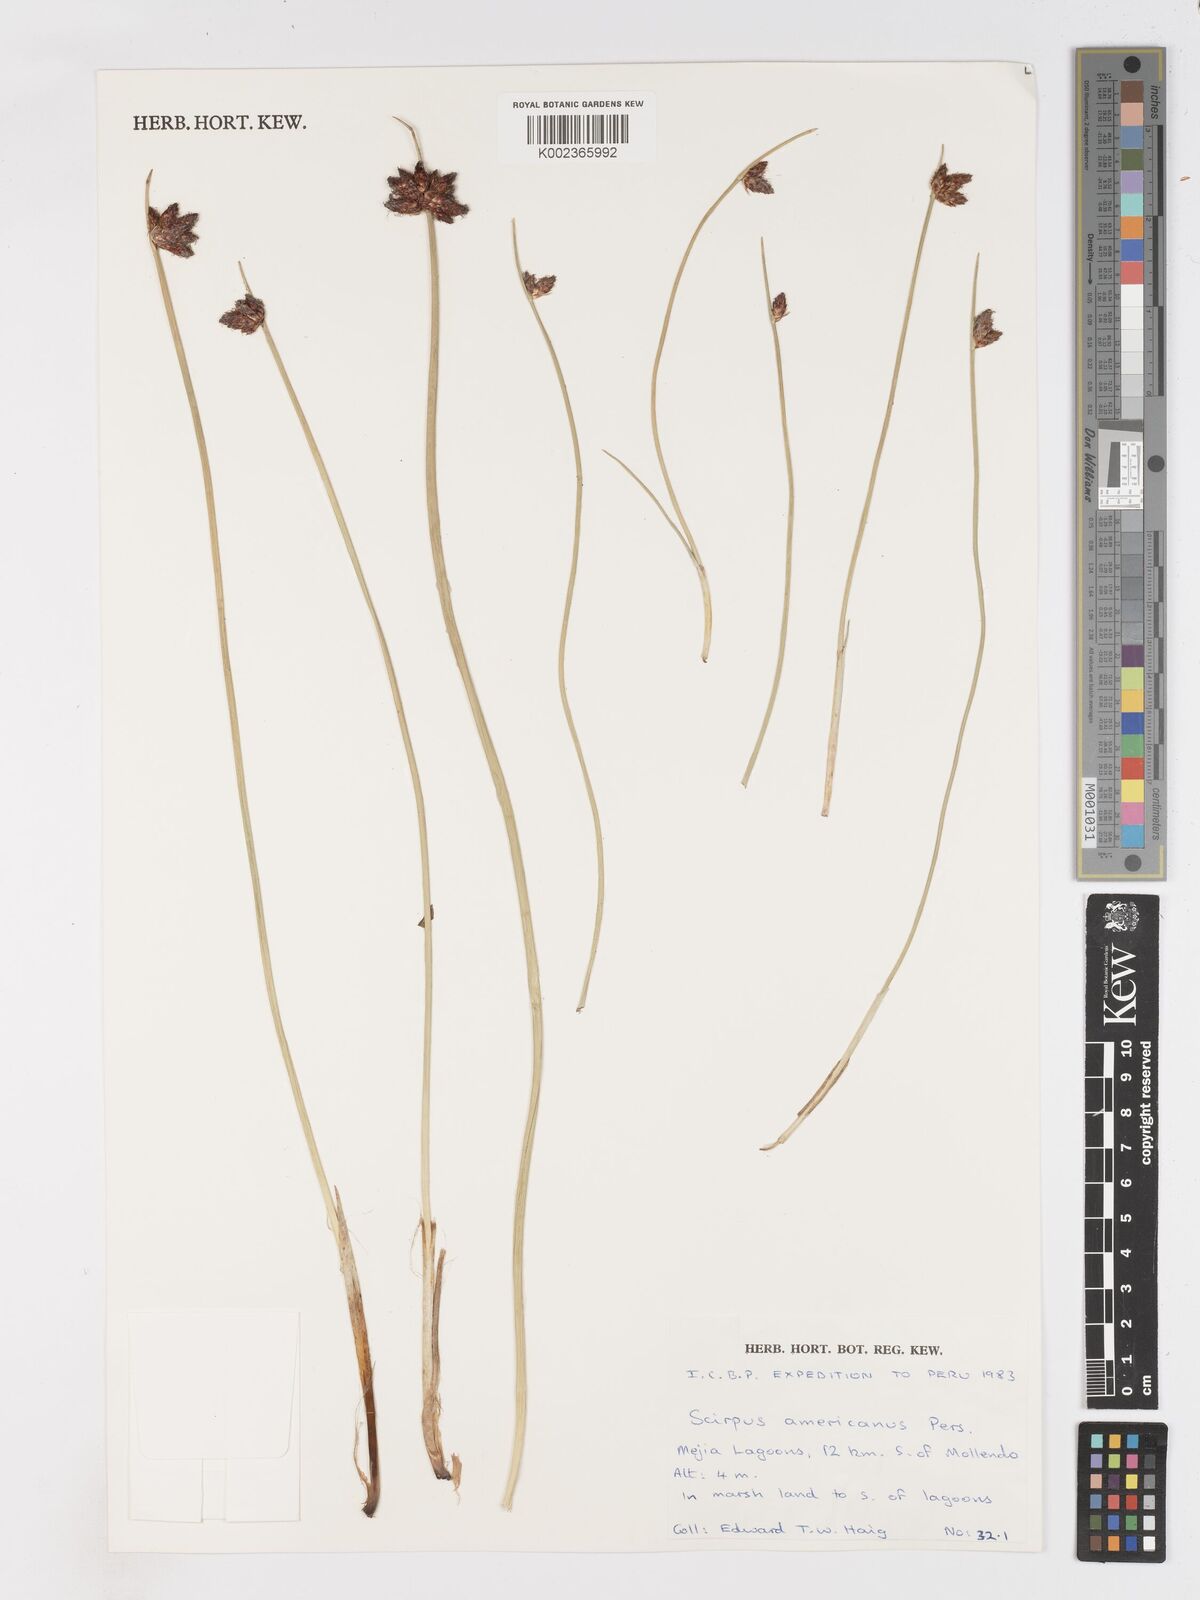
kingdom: Plantae
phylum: Tracheophyta
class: Liliopsida
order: Poales
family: Cyperaceae
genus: Schoenoplectus
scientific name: Schoenoplectus americanus
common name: American three-square bulrush
